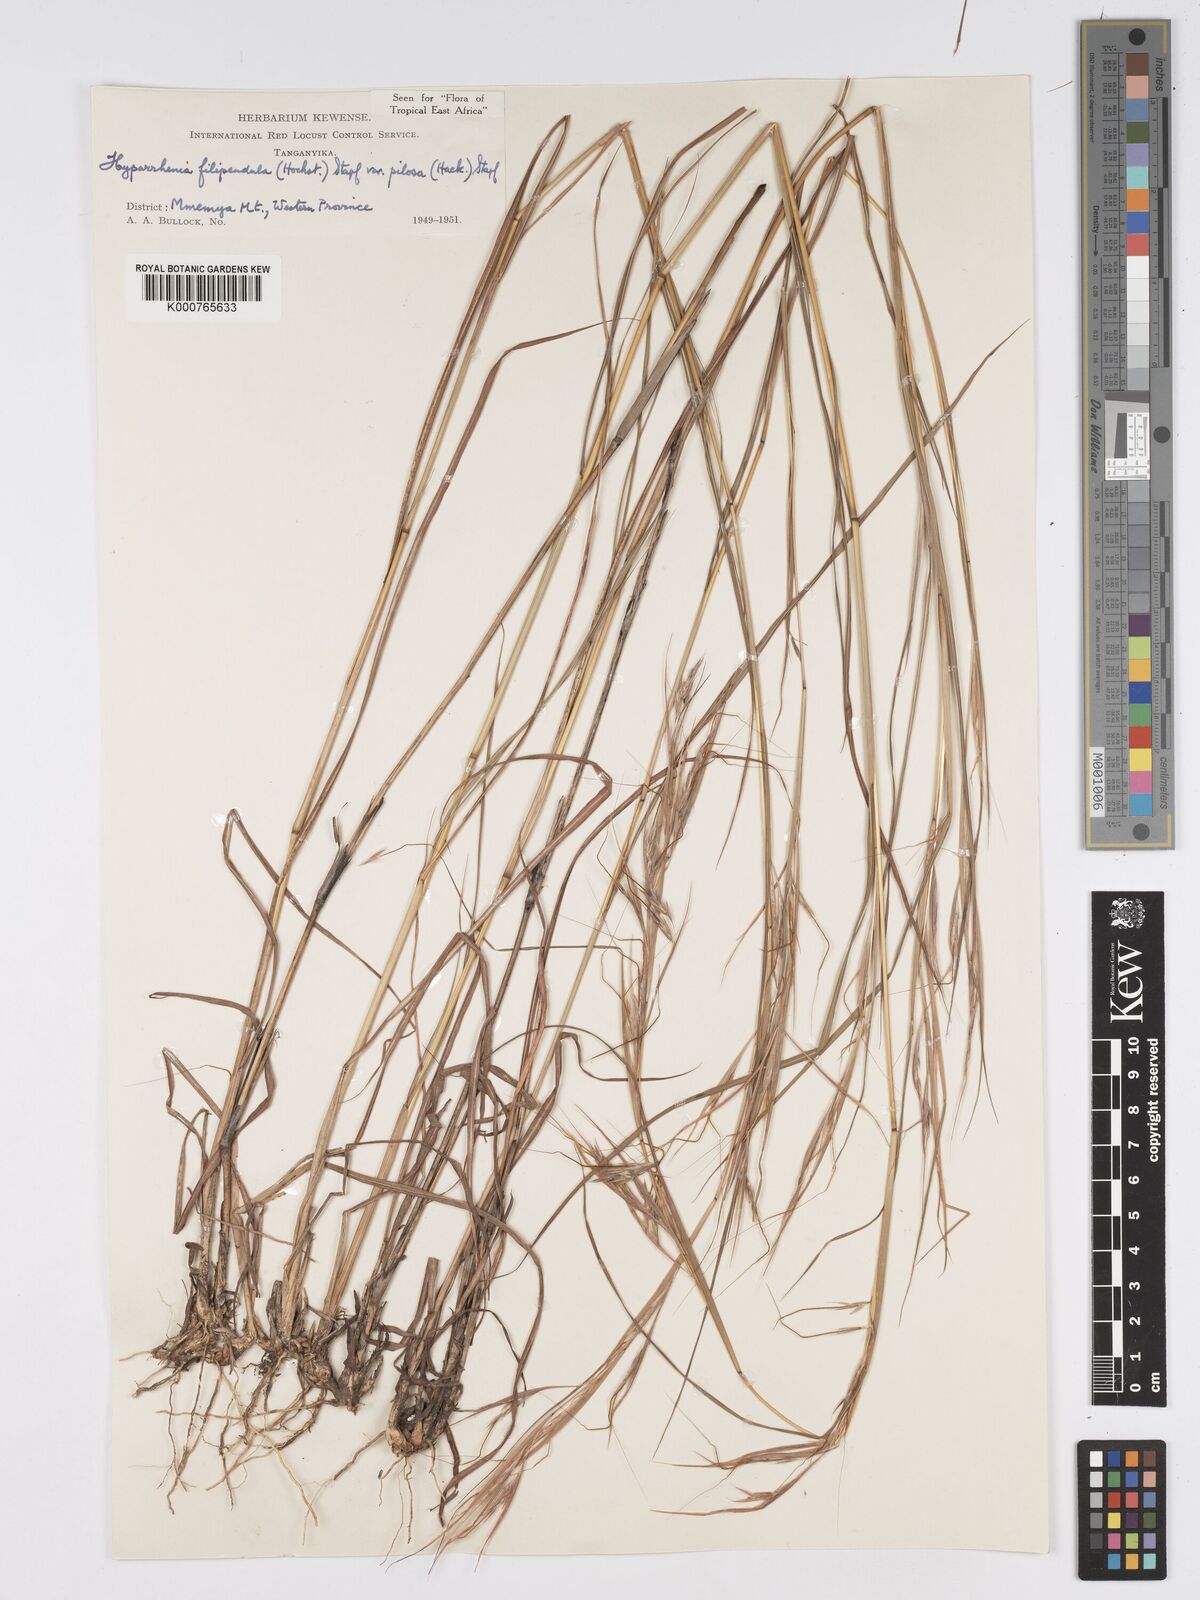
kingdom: Plantae
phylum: Tracheophyta
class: Liliopsida
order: Poales
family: Poaceae
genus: Hyparrhenia
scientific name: Hyparrhenia filipendula
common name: Tambookie grass
